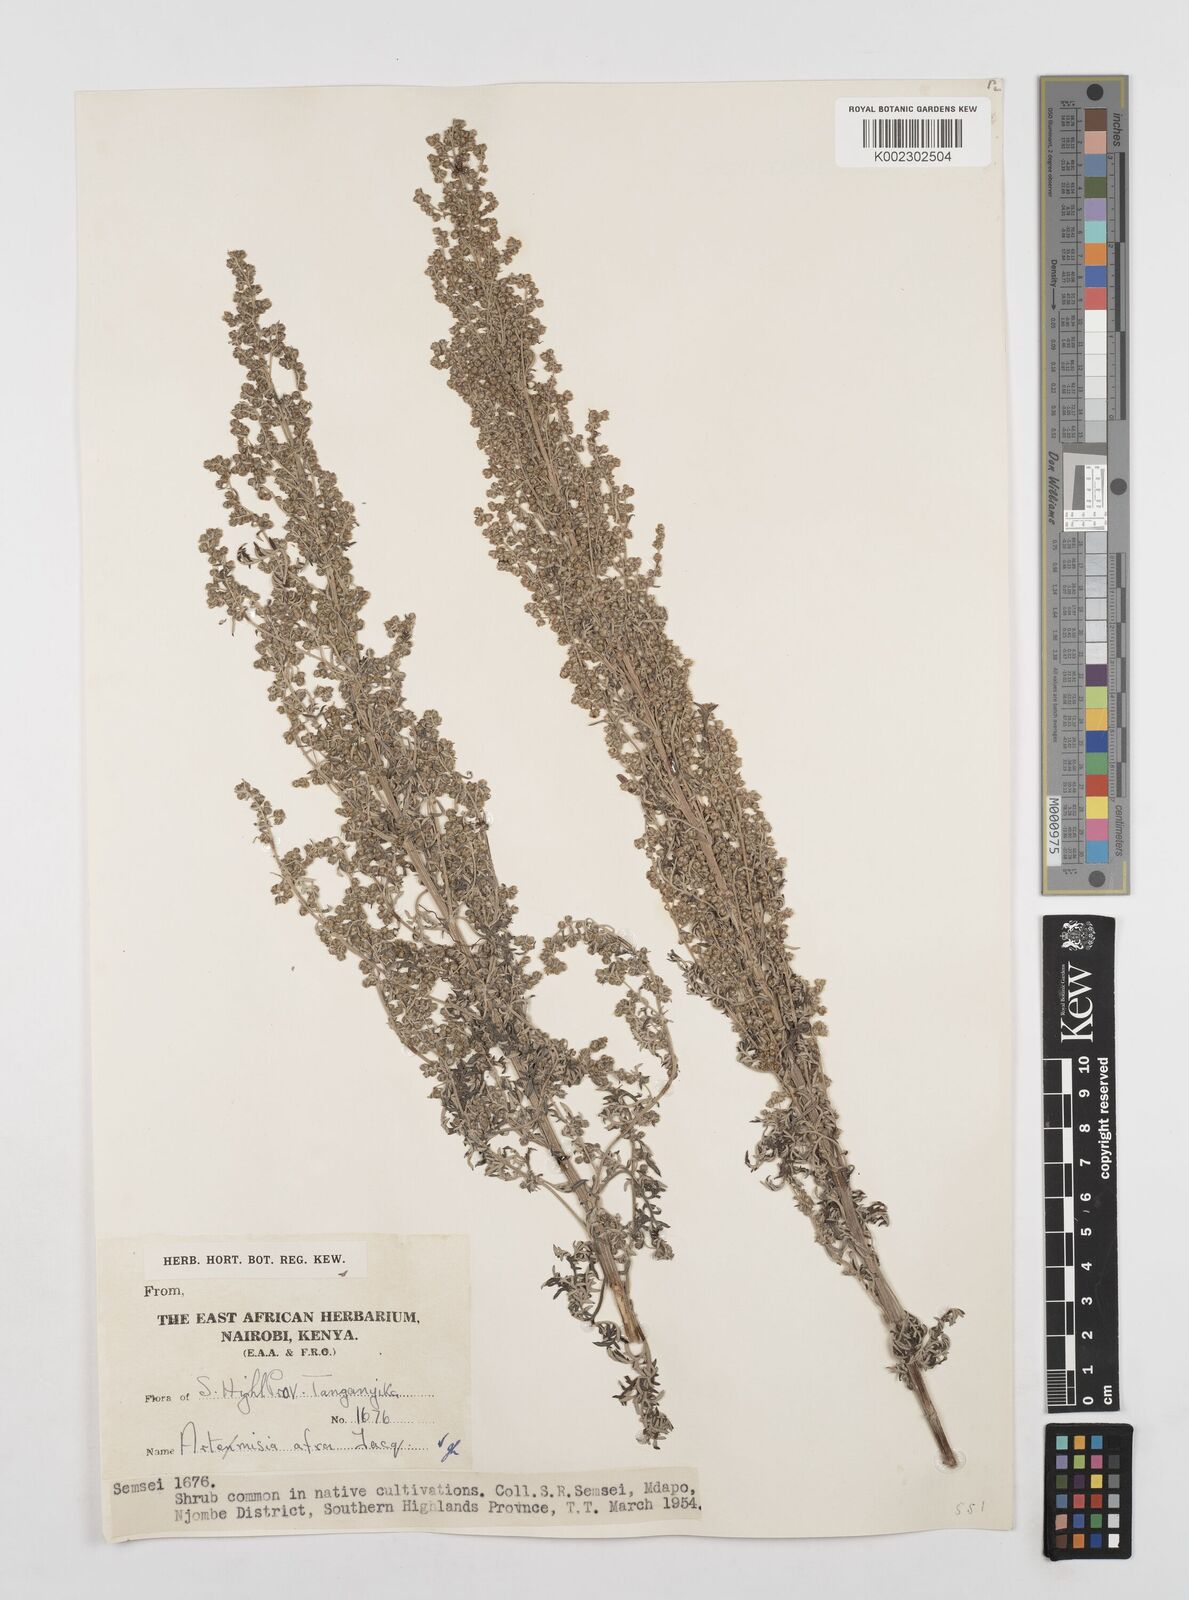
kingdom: Plantae
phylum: Tracheophyta
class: Magnoliopsida
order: Asterales
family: Asteraceae
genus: Artemisia
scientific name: Artemisia afra
